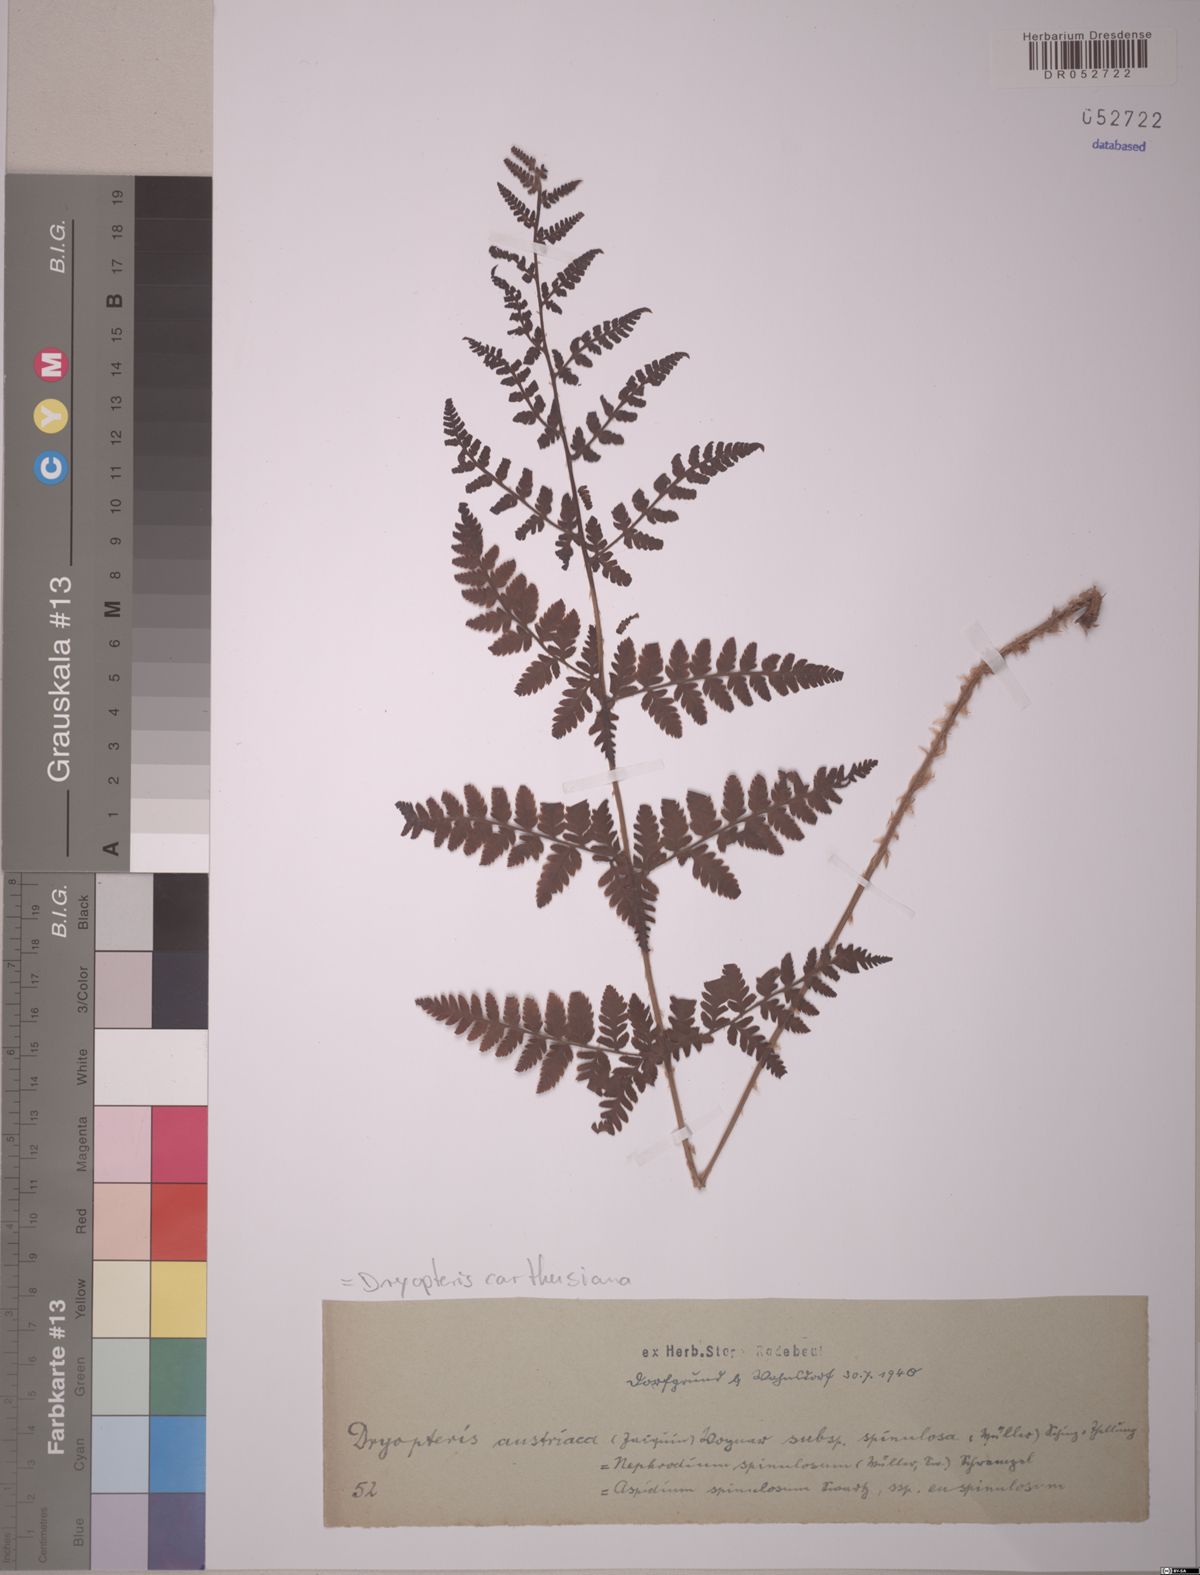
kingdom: Plantae
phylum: Tracheophyta
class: Polypodiopsida
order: Polypodiales
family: Dryopteridaceae
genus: Dryopteris
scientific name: Dryopteris carthusiana
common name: Narrow buckler-fern
